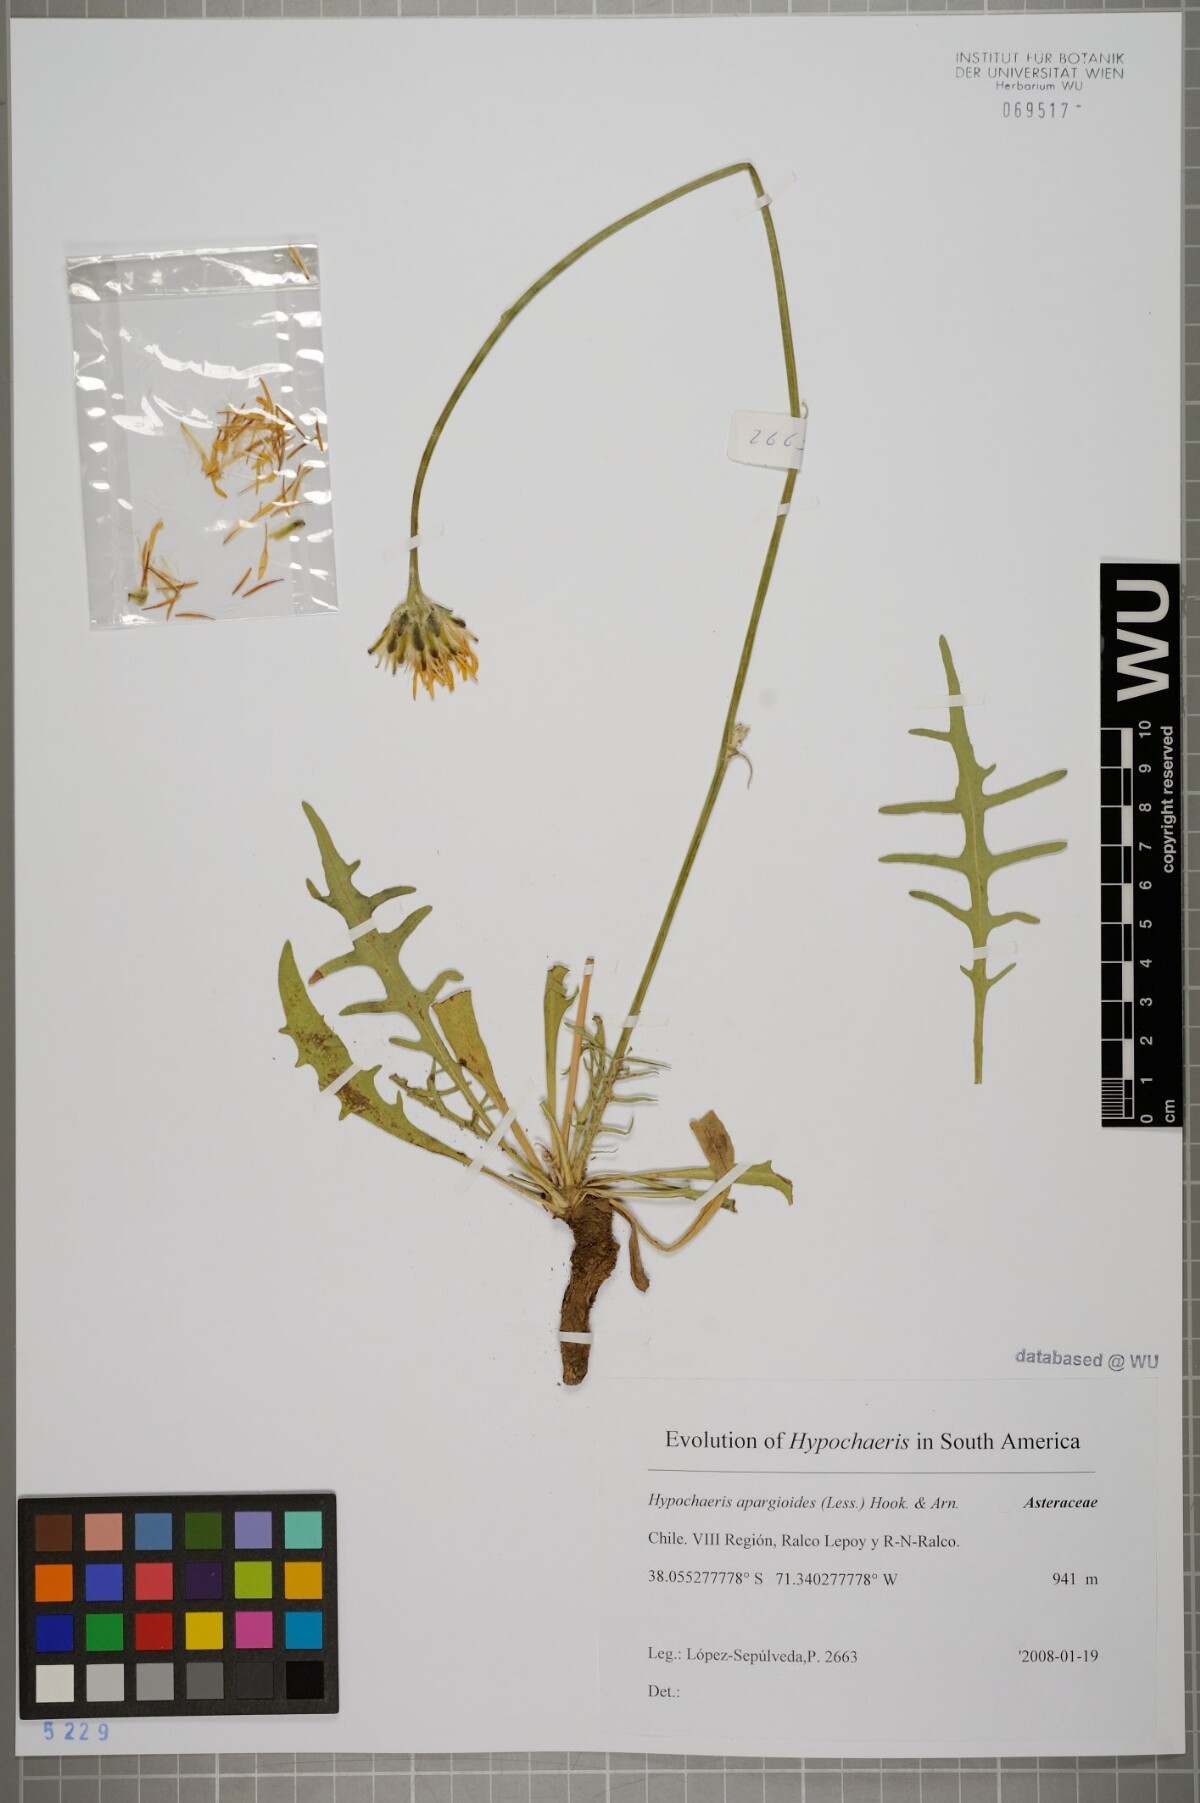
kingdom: Plantae
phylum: Tracheophyta
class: Magnoliopsida
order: Asterales
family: Asteraceae
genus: Hypochaeris
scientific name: Hypochaeris apargioides
